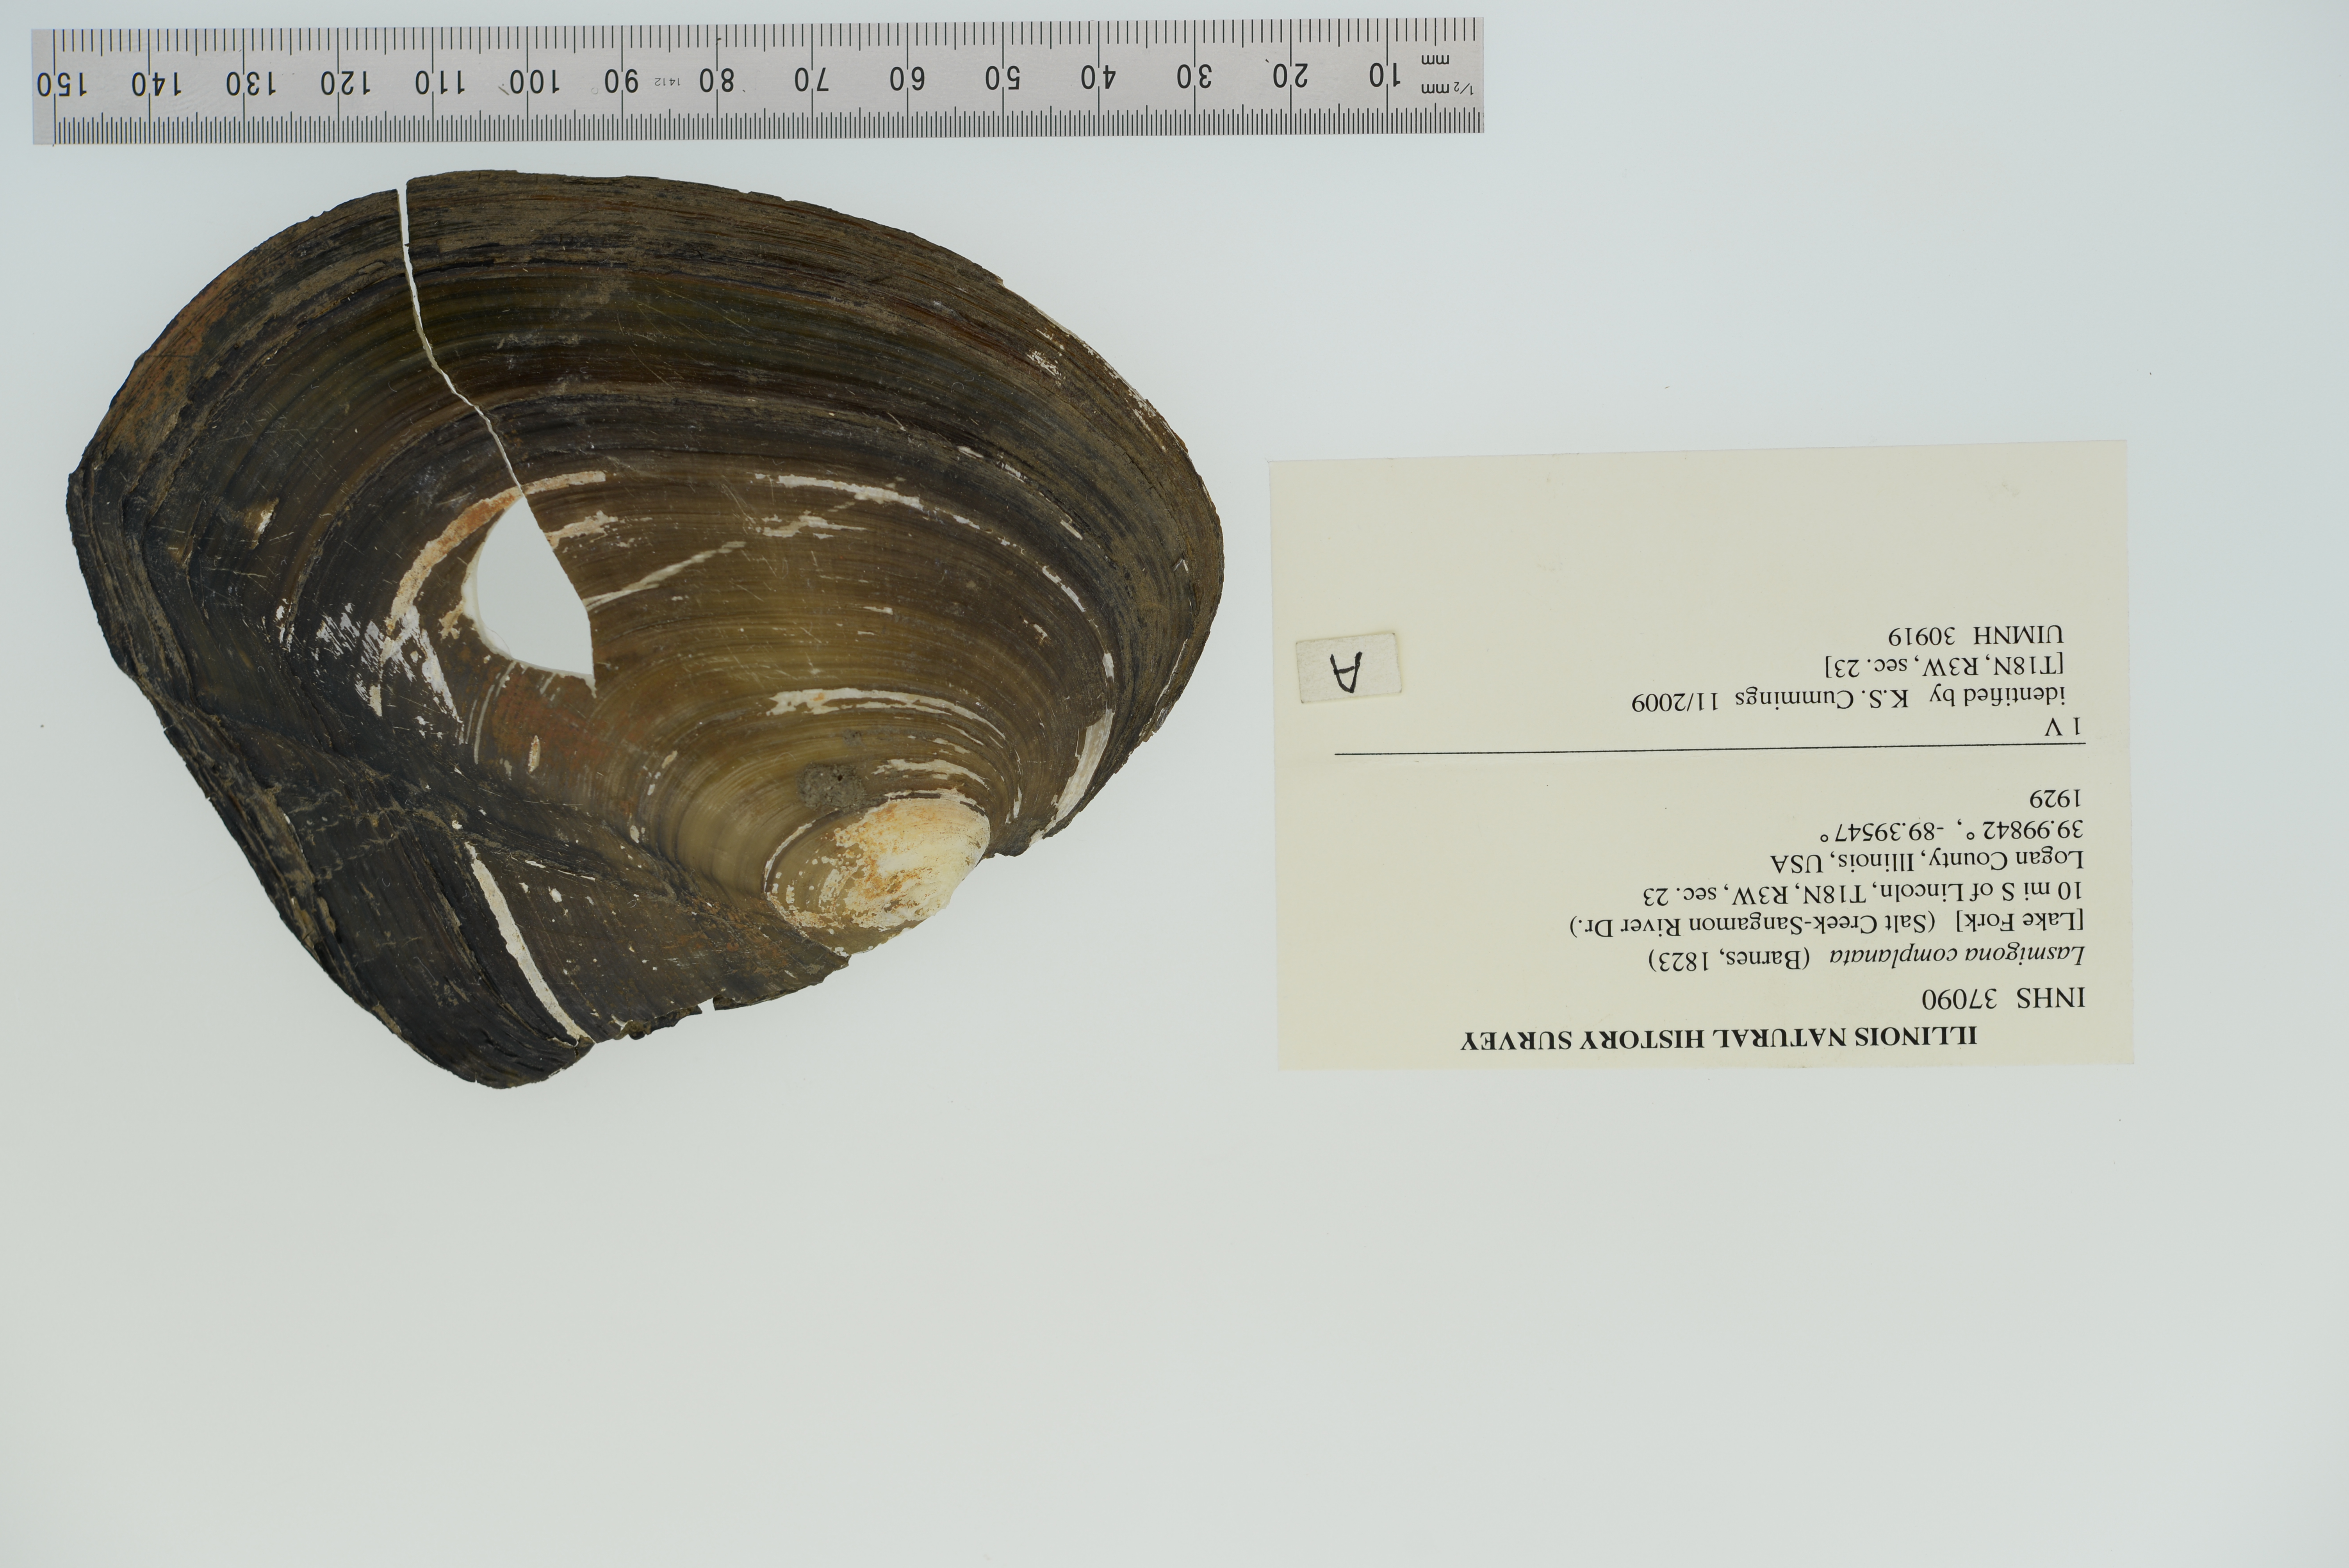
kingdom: Animalia
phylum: Mollusca
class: Bivalvia
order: Unionida
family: Unionidae
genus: Lasmigona
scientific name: Lasmigona complanata
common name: White heelsplitter
